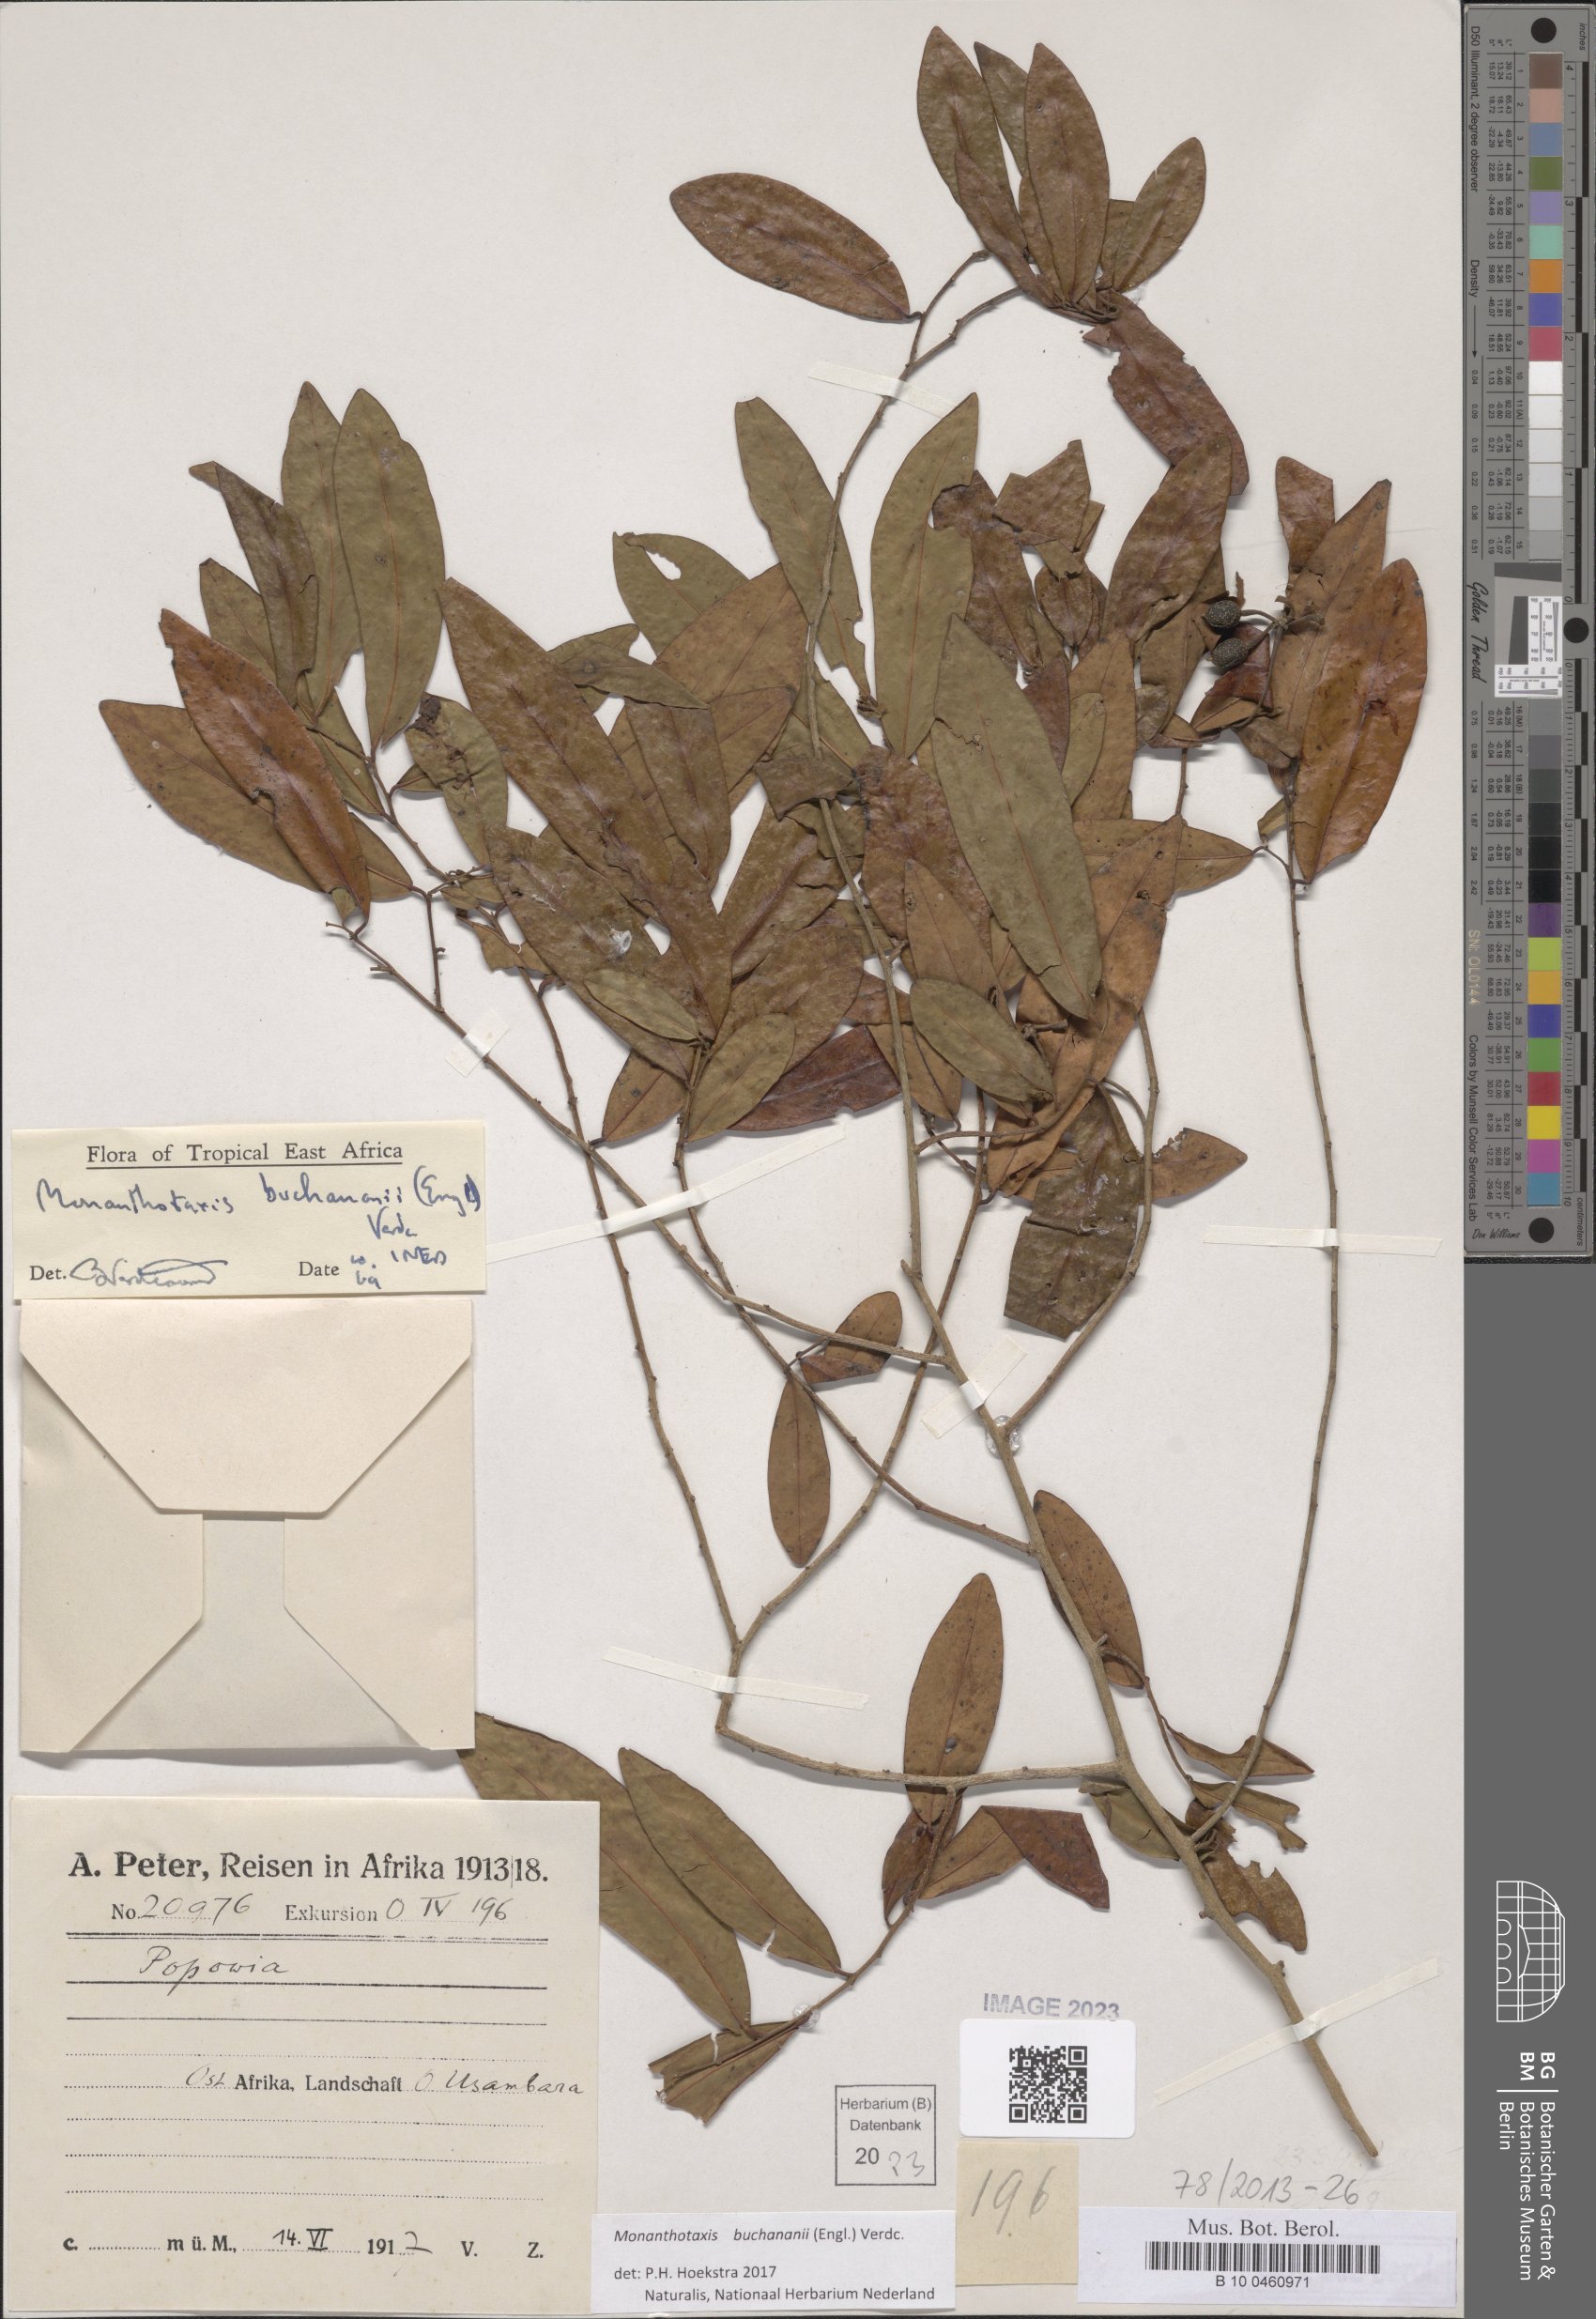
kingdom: Plantae
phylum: Tracheophyta
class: Magnoliopsida
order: Magnoliales
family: Annonaceae
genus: Monanthotaxis
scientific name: Monanthotaxis buchananii
